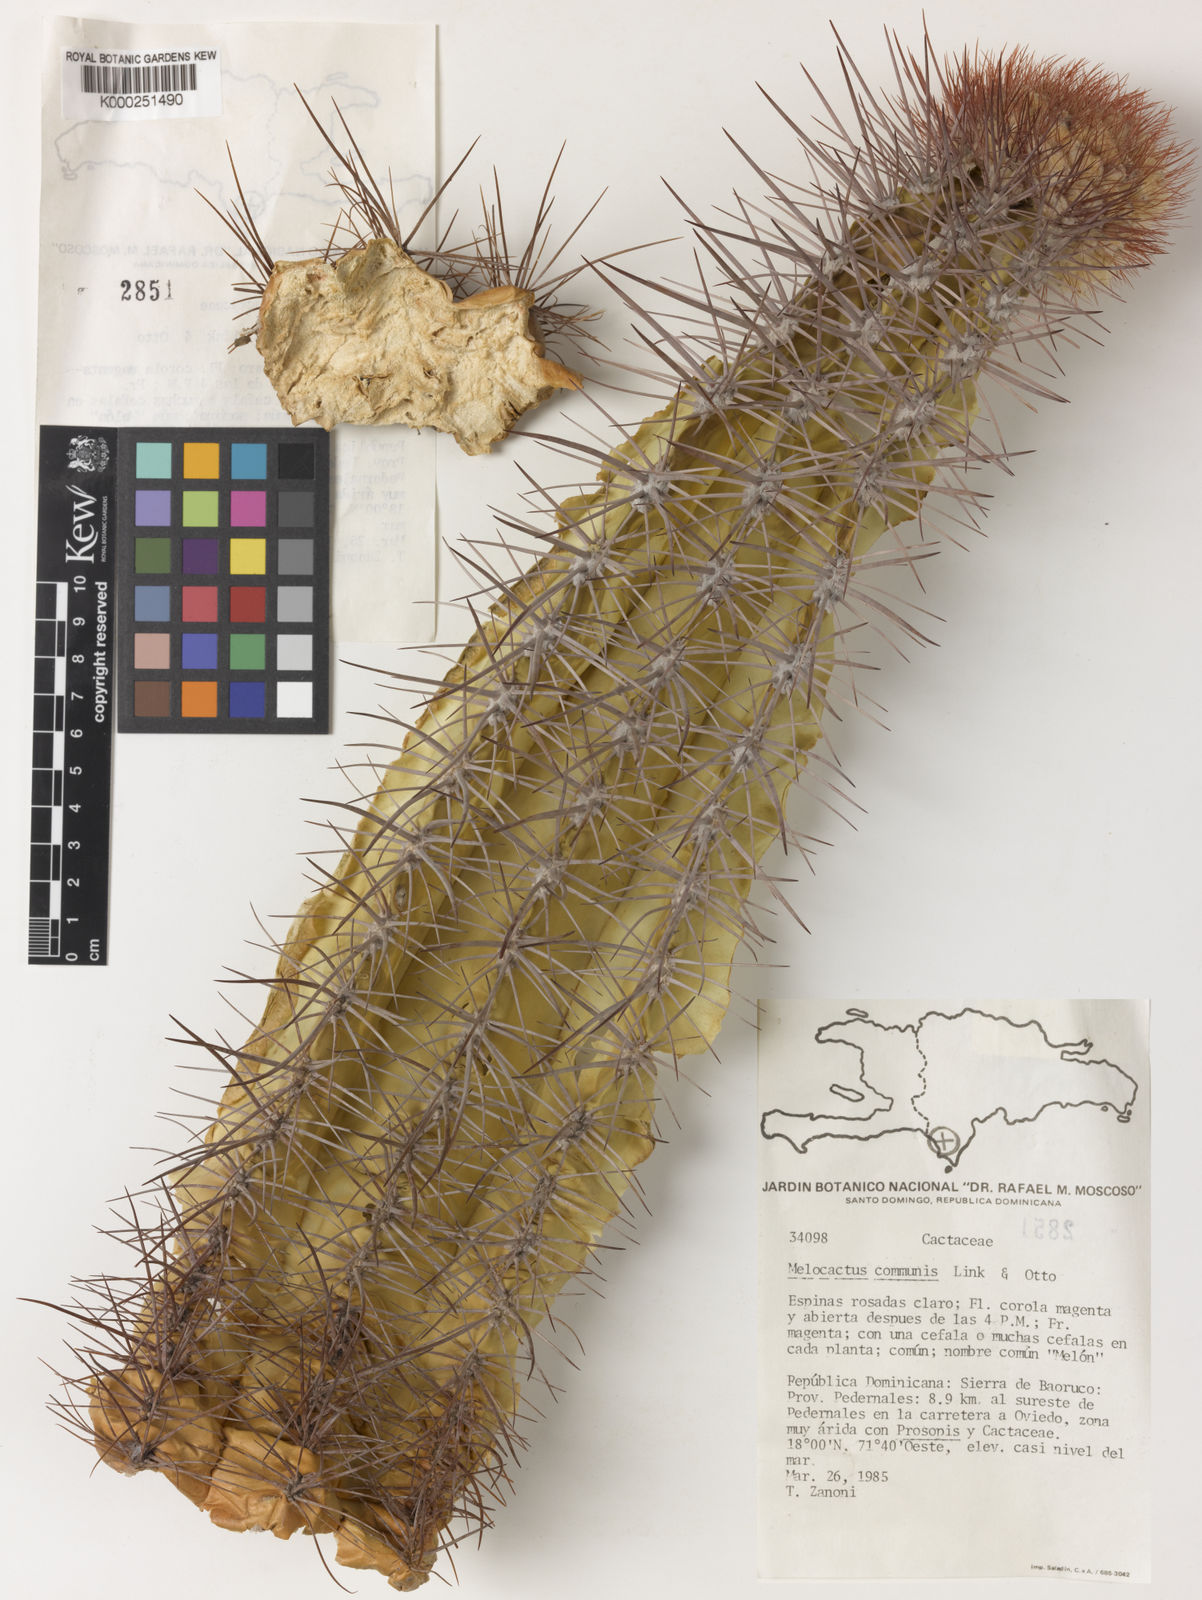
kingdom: Plantae
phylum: Tracheophyta
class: Magnoliopsida
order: Caryophyllales
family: Cactaceae
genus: Melocactus
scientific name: Melocactus
